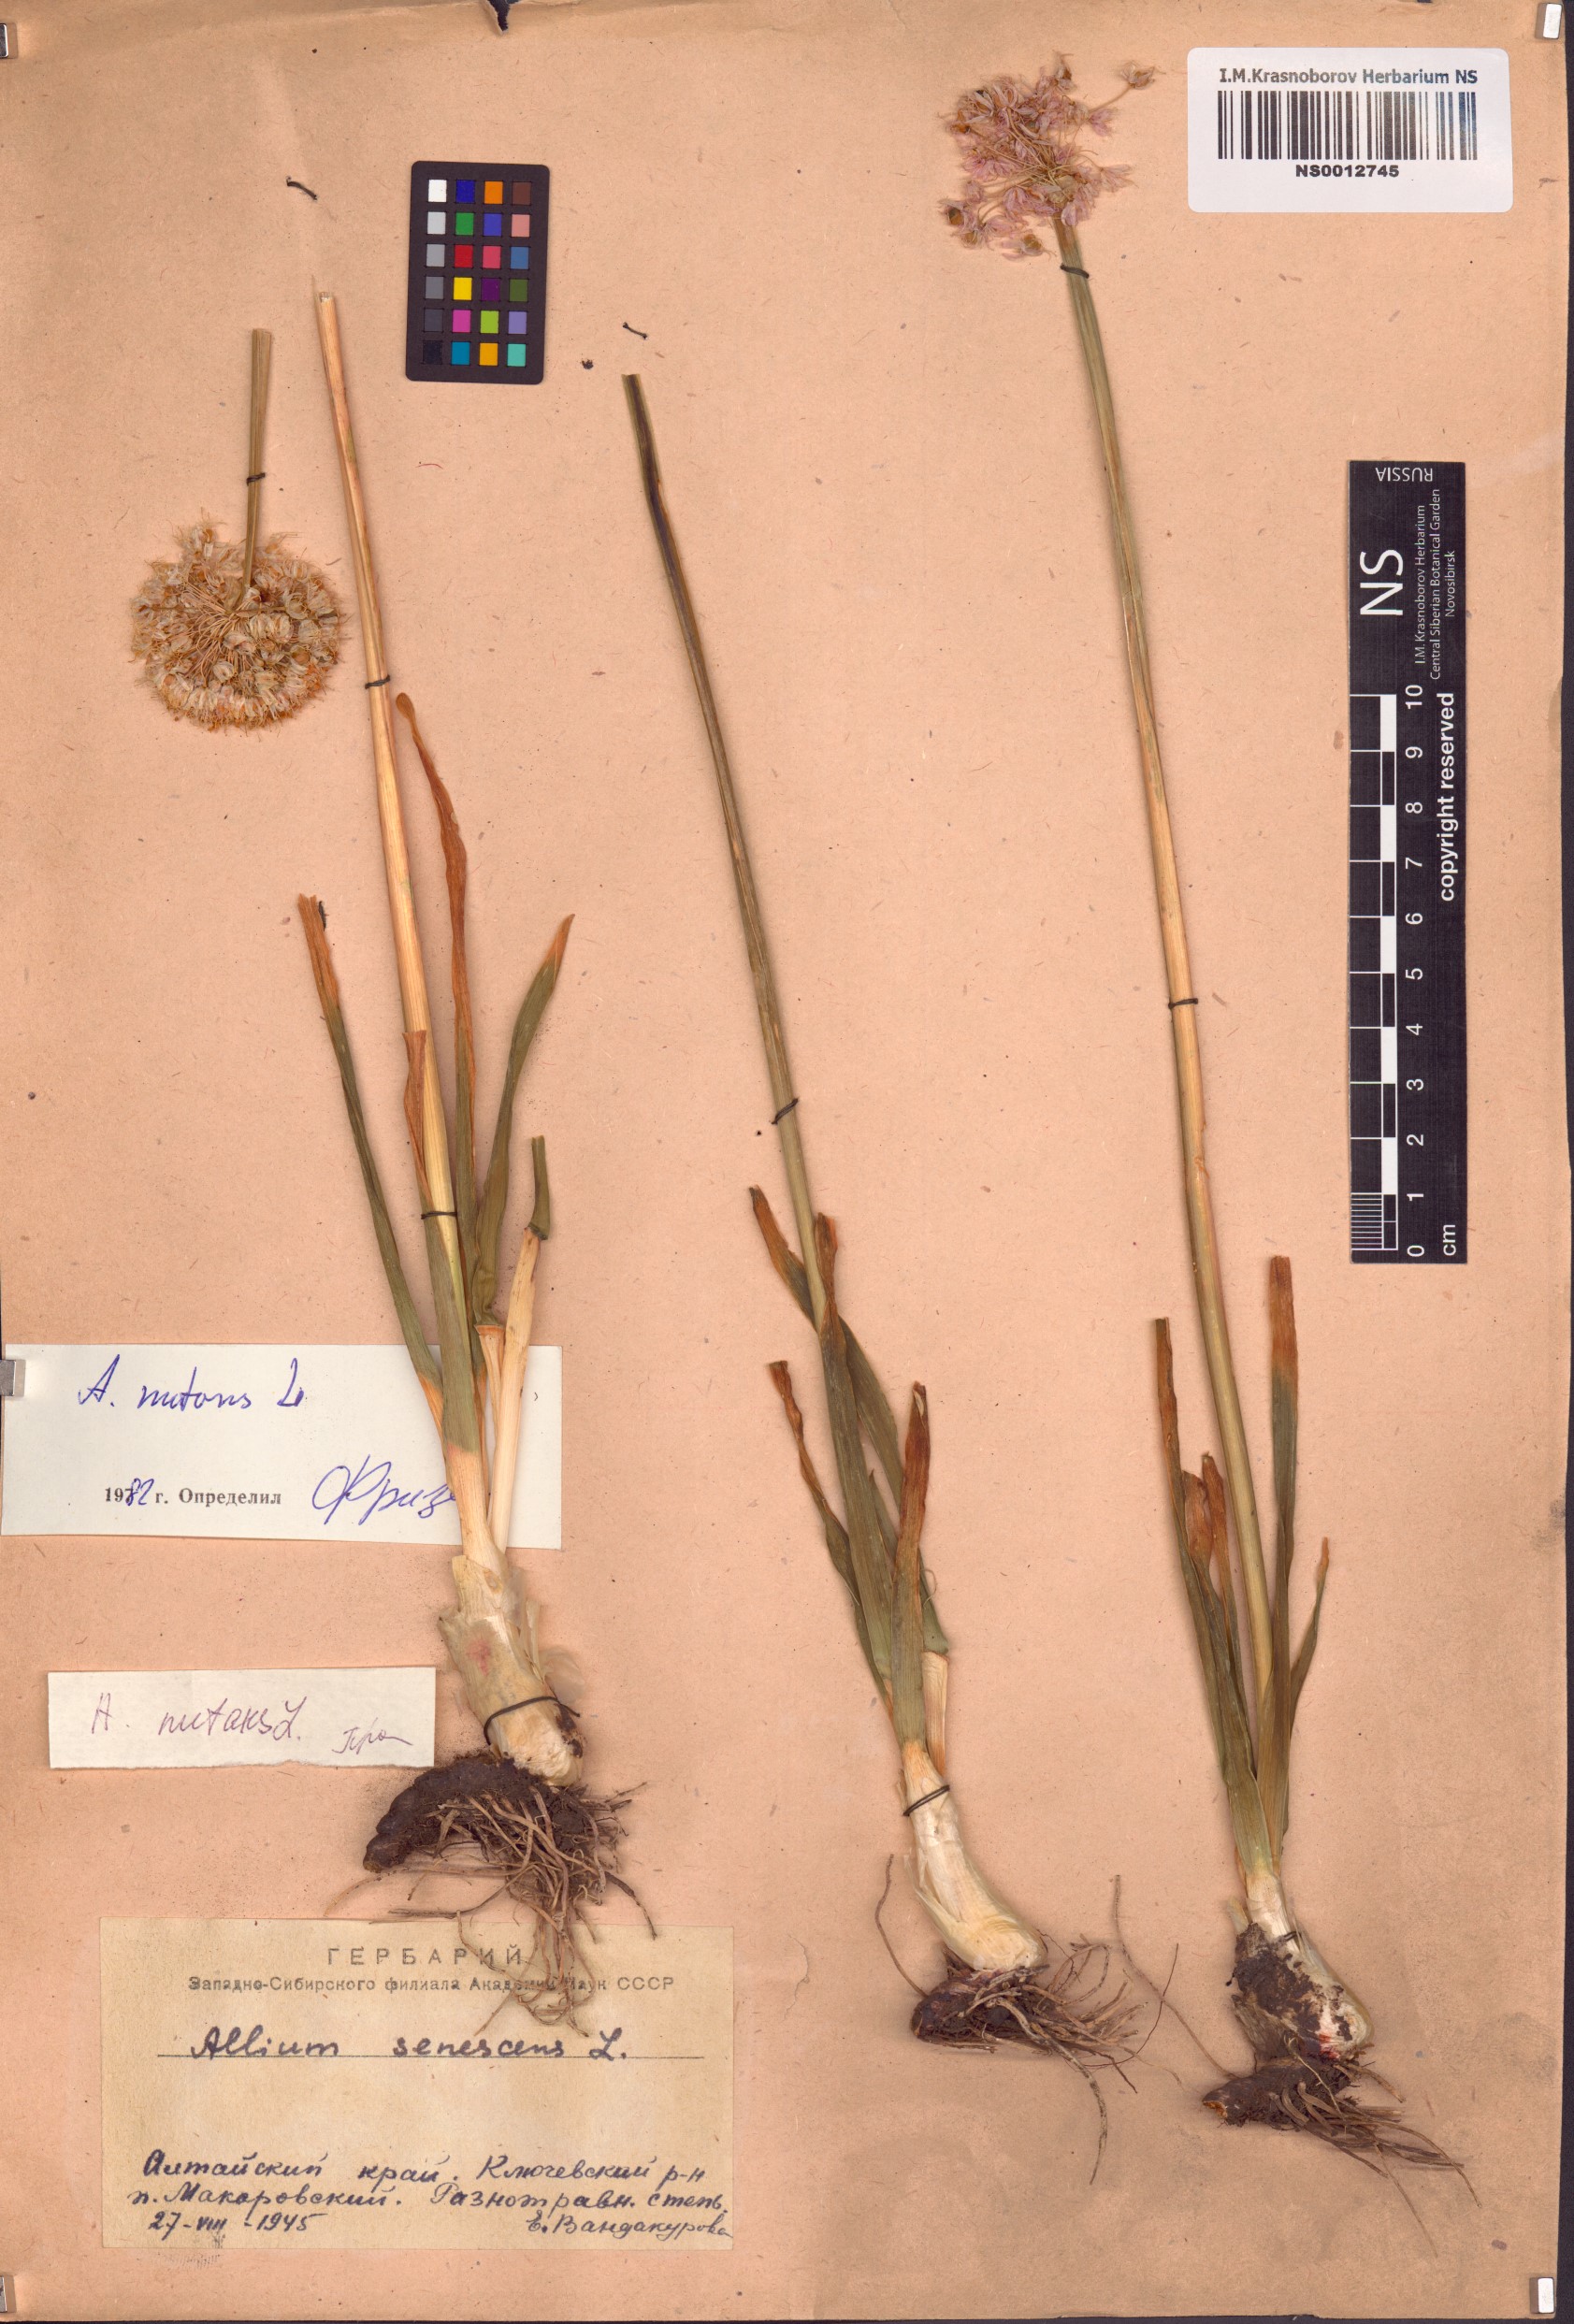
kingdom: Plantae
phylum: Tracheophyta
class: Liliopsida
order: Asparagales
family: Amaryllidaceae
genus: Allium
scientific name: Allium nutans
